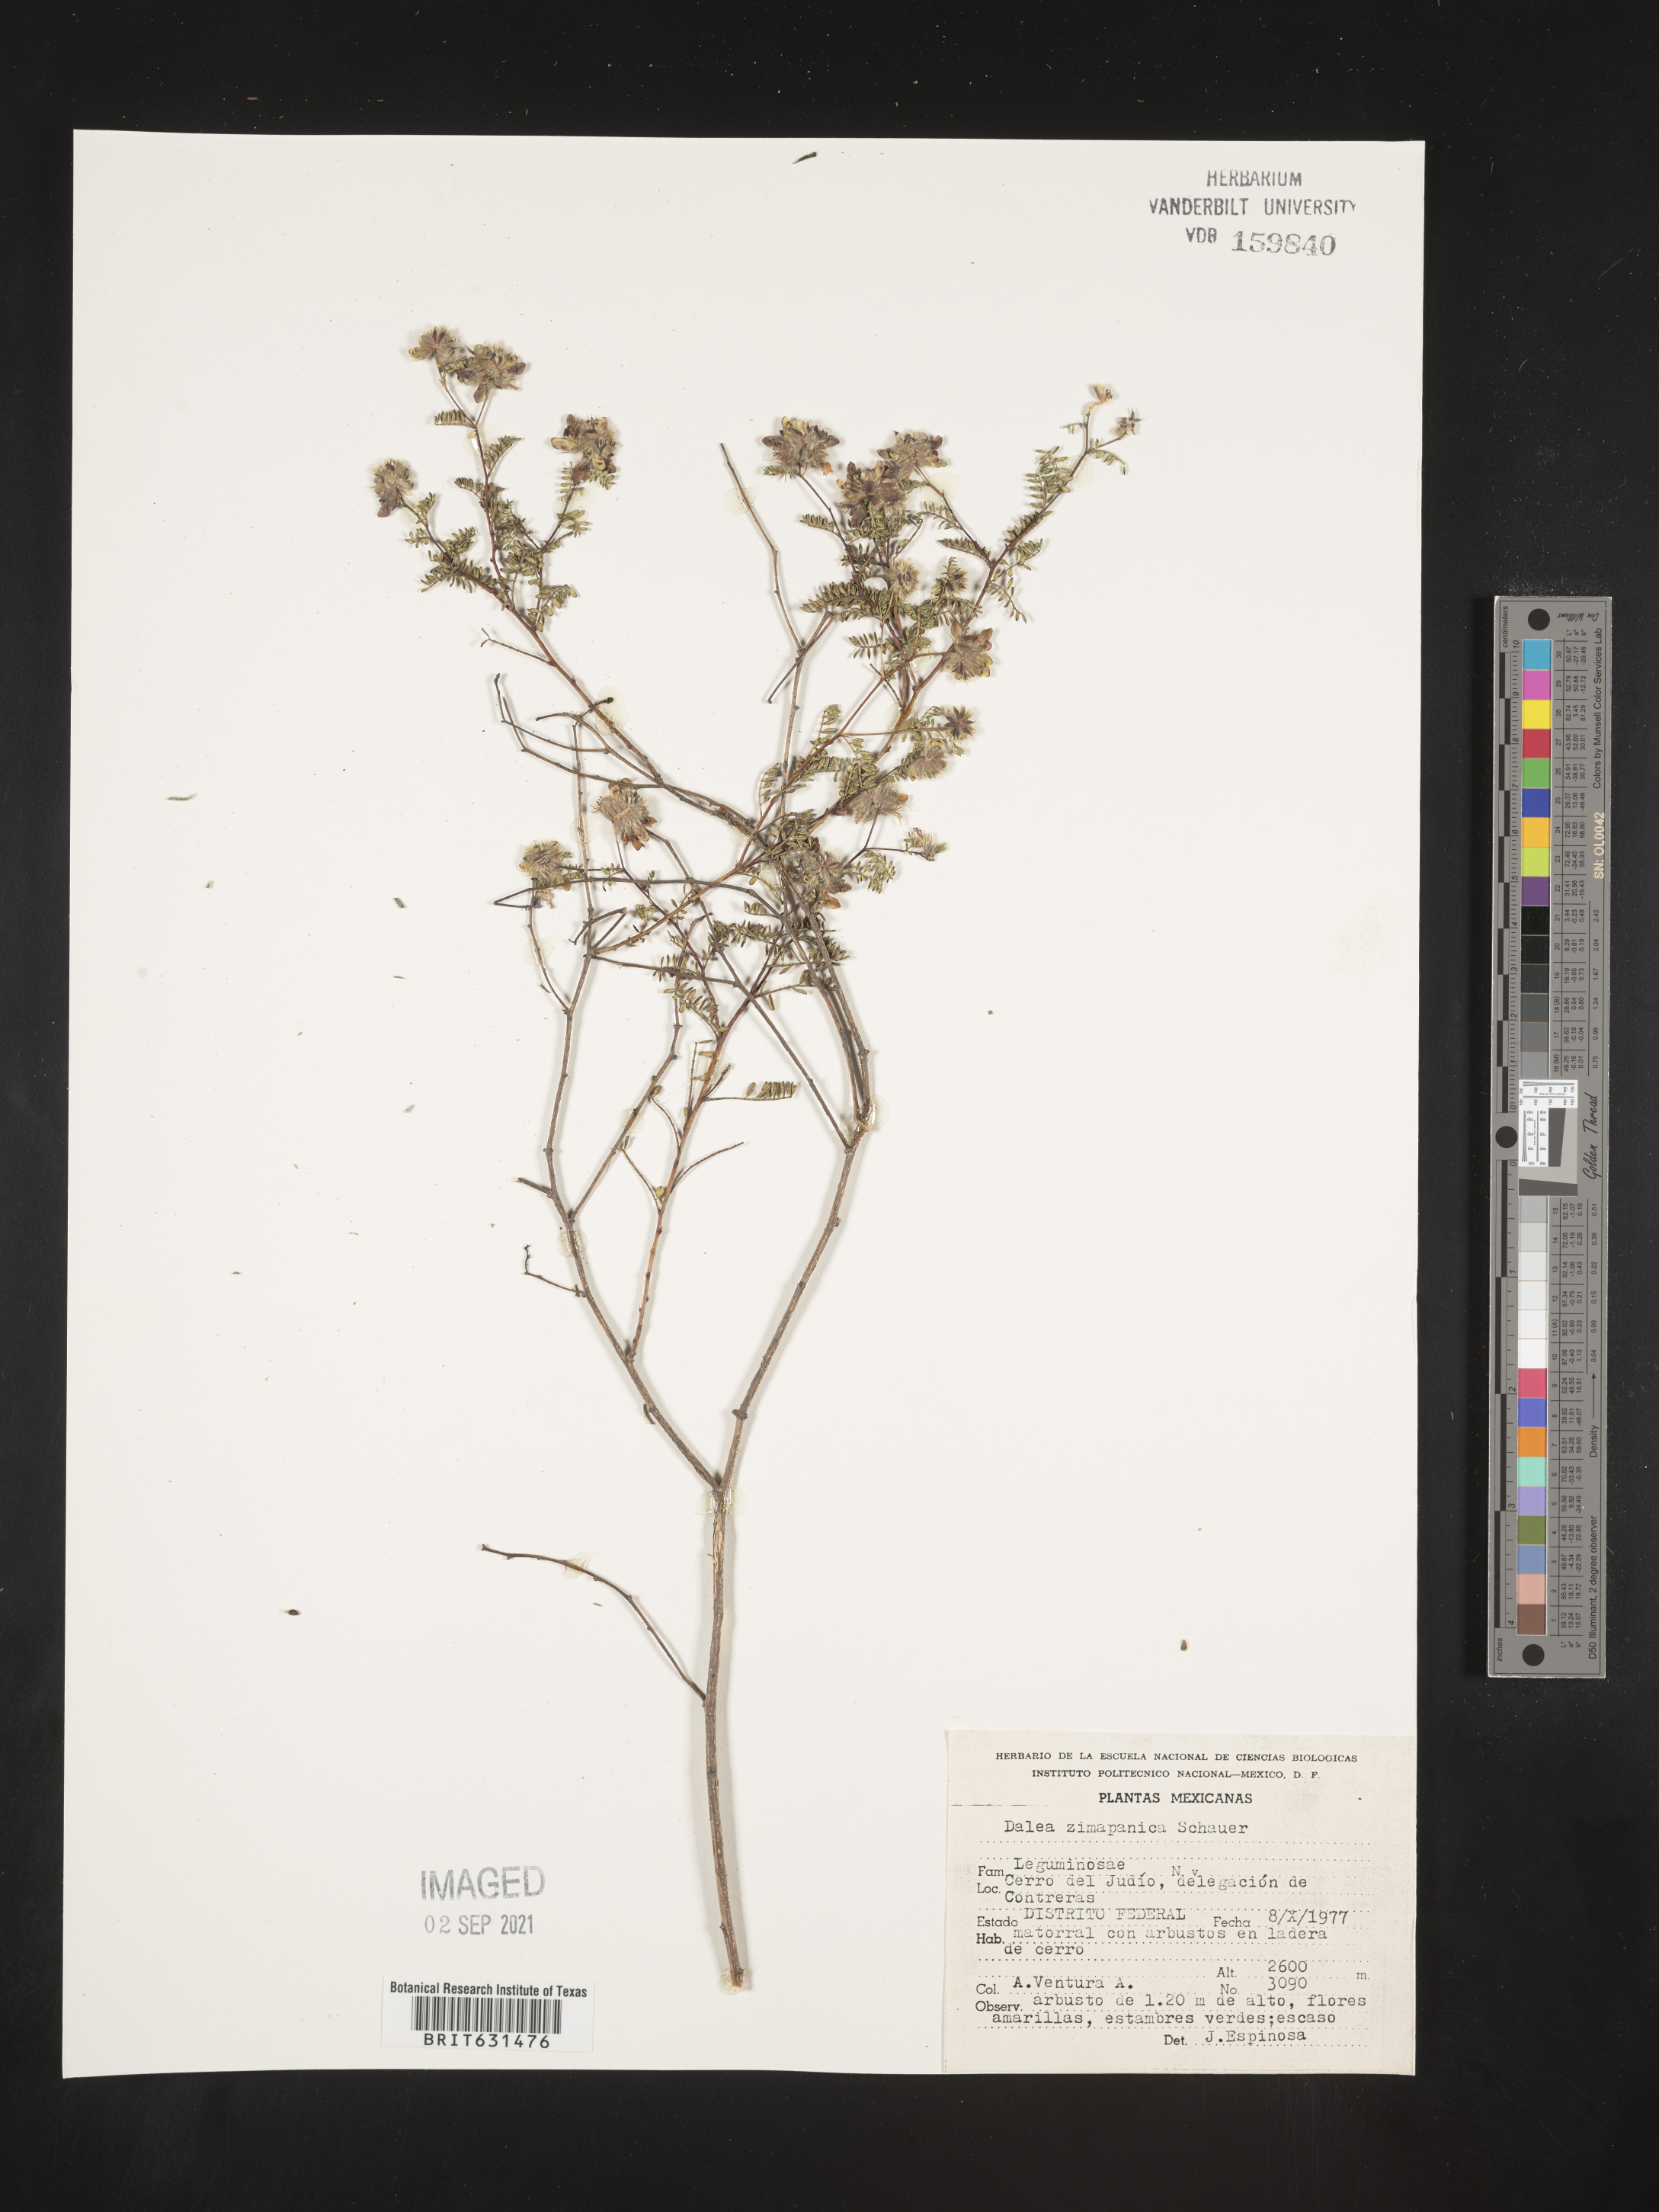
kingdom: Plantae
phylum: Tracheophyta
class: Magnoliopsida
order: Fabales
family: Fabaceae
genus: Dalea
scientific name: Dalea zimapanica
